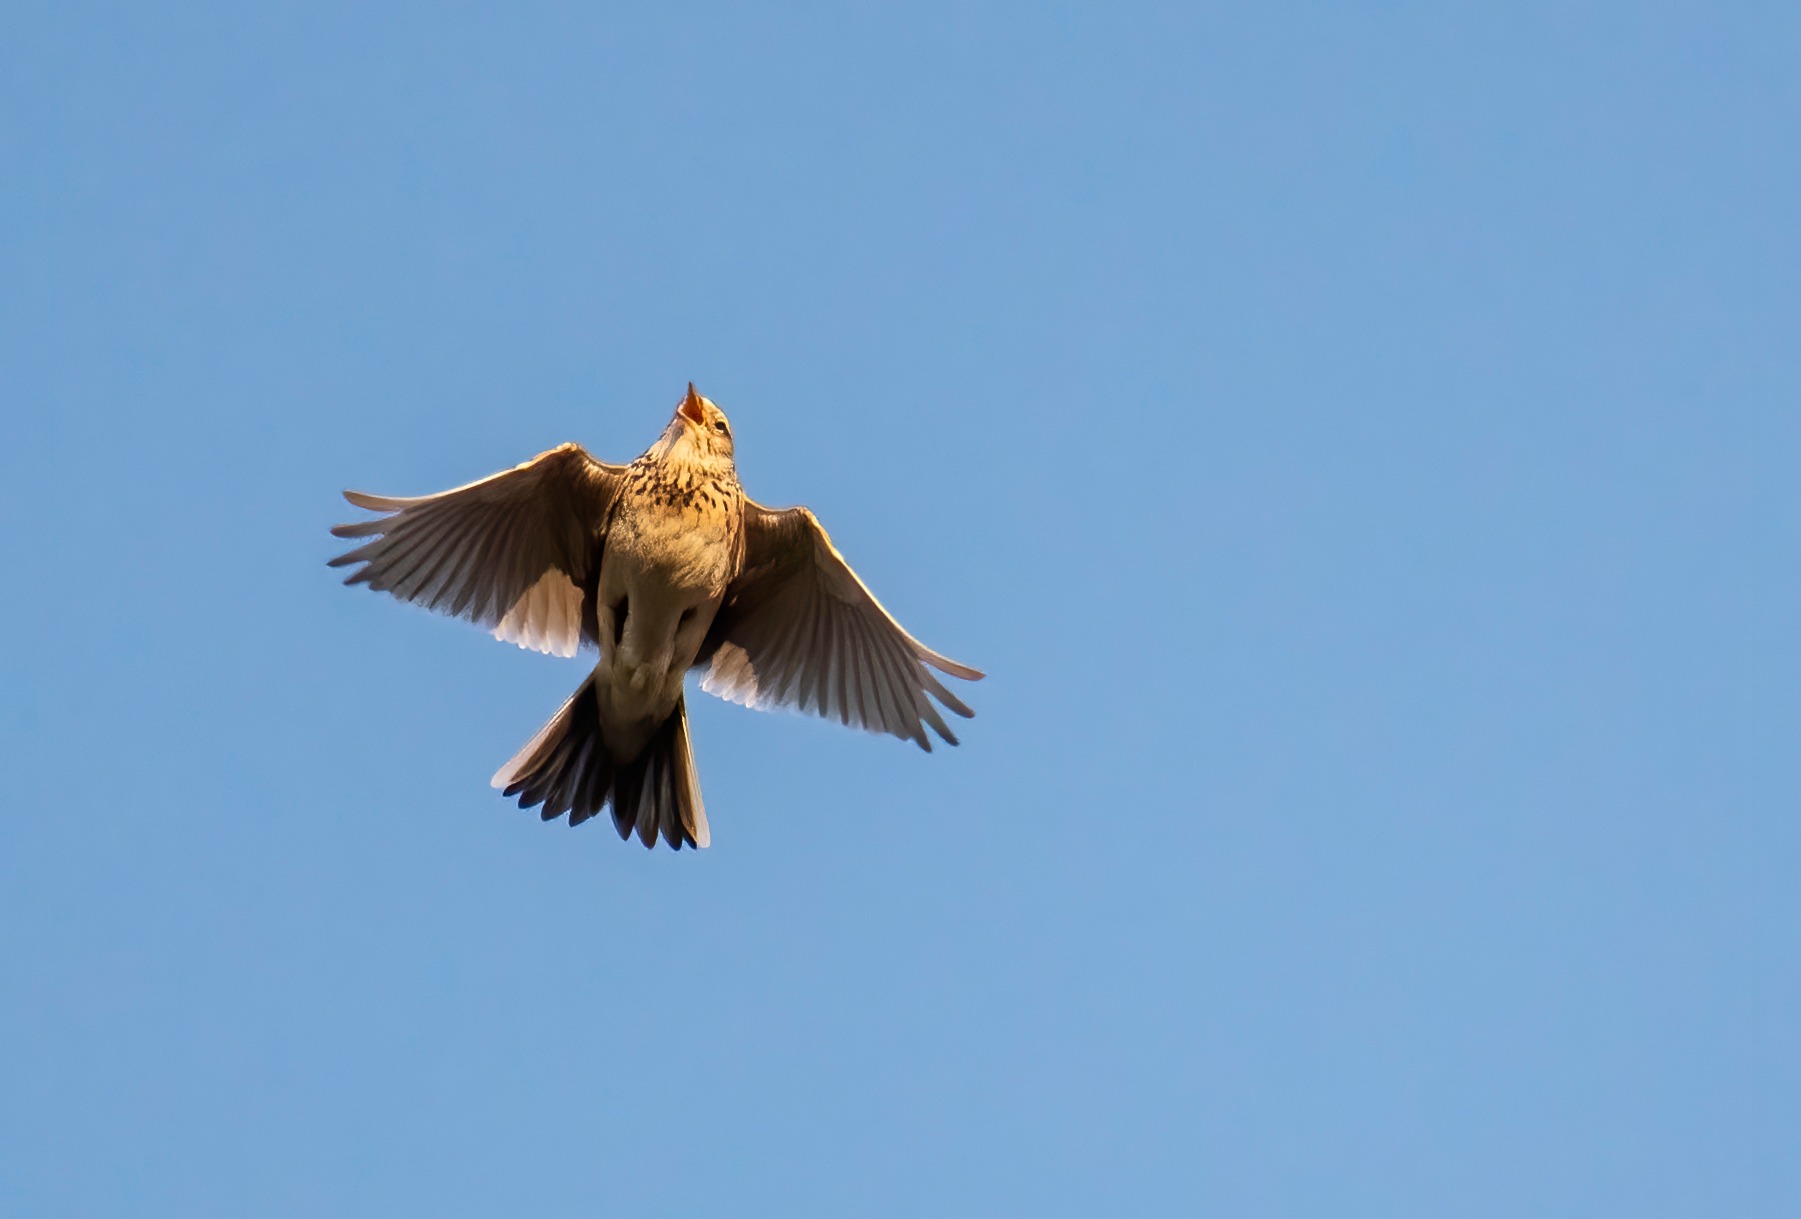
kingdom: Animalia
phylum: Chordata
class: Aves
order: Passeriformes
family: Alaudidae
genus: Alauda
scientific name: Alauda arvensis
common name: Sanglærke
